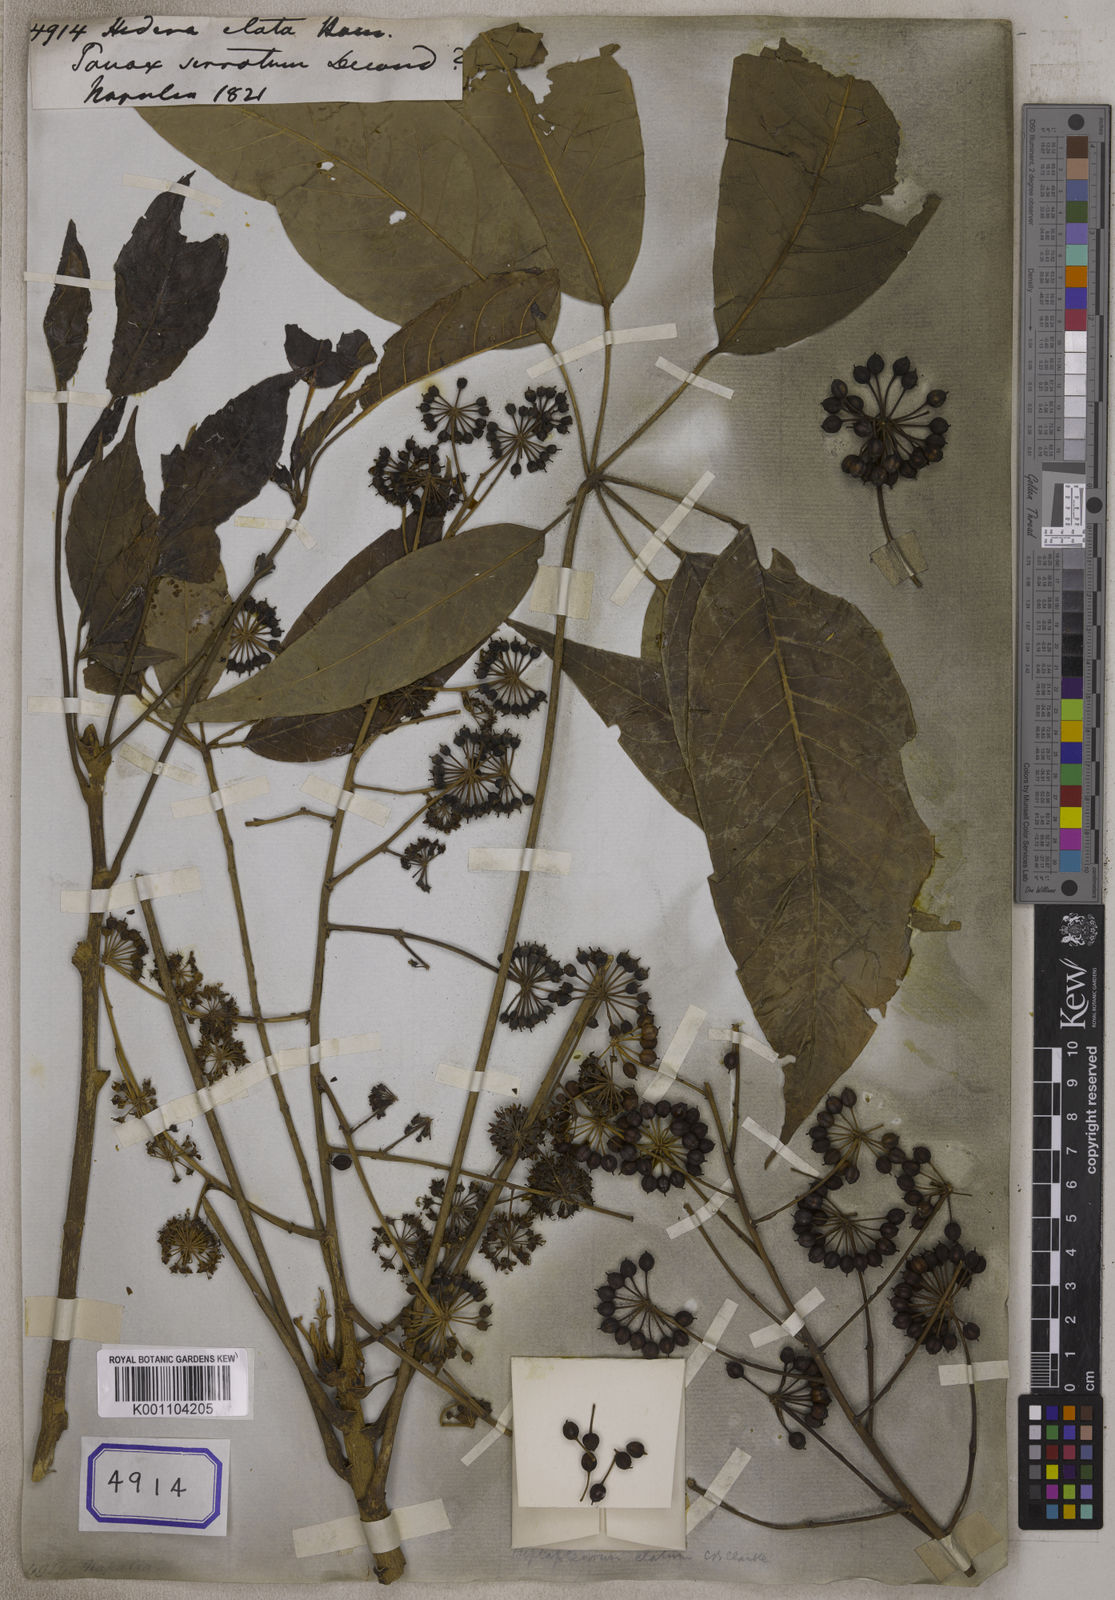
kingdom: Plantae
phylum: Tracheophyta
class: Magnoliopsida
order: Apiales
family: Araliaceae
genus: Hedera
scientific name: Hedera
